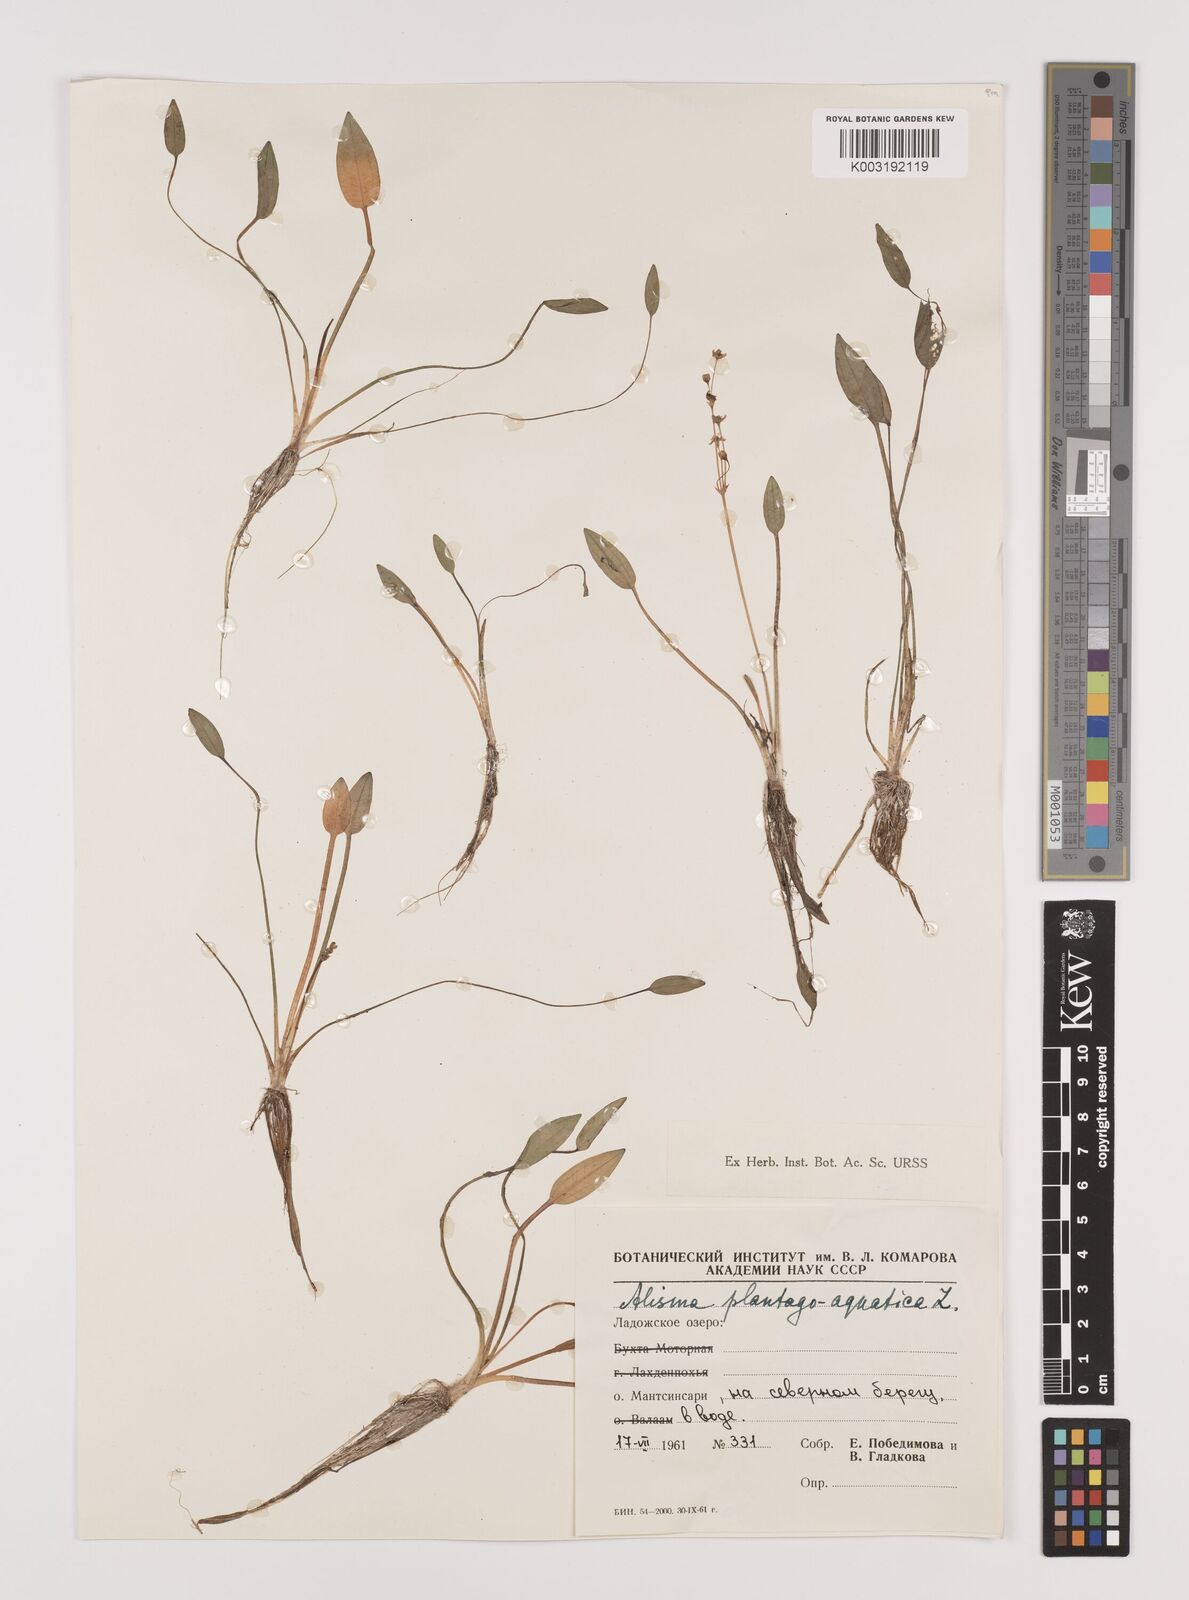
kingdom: Plantae
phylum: Tracheophyta
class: Liliopsida
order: Alismatales
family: Alismataceae
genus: Alisma
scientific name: Alisma plantago-aquatica
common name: Water-plantain
